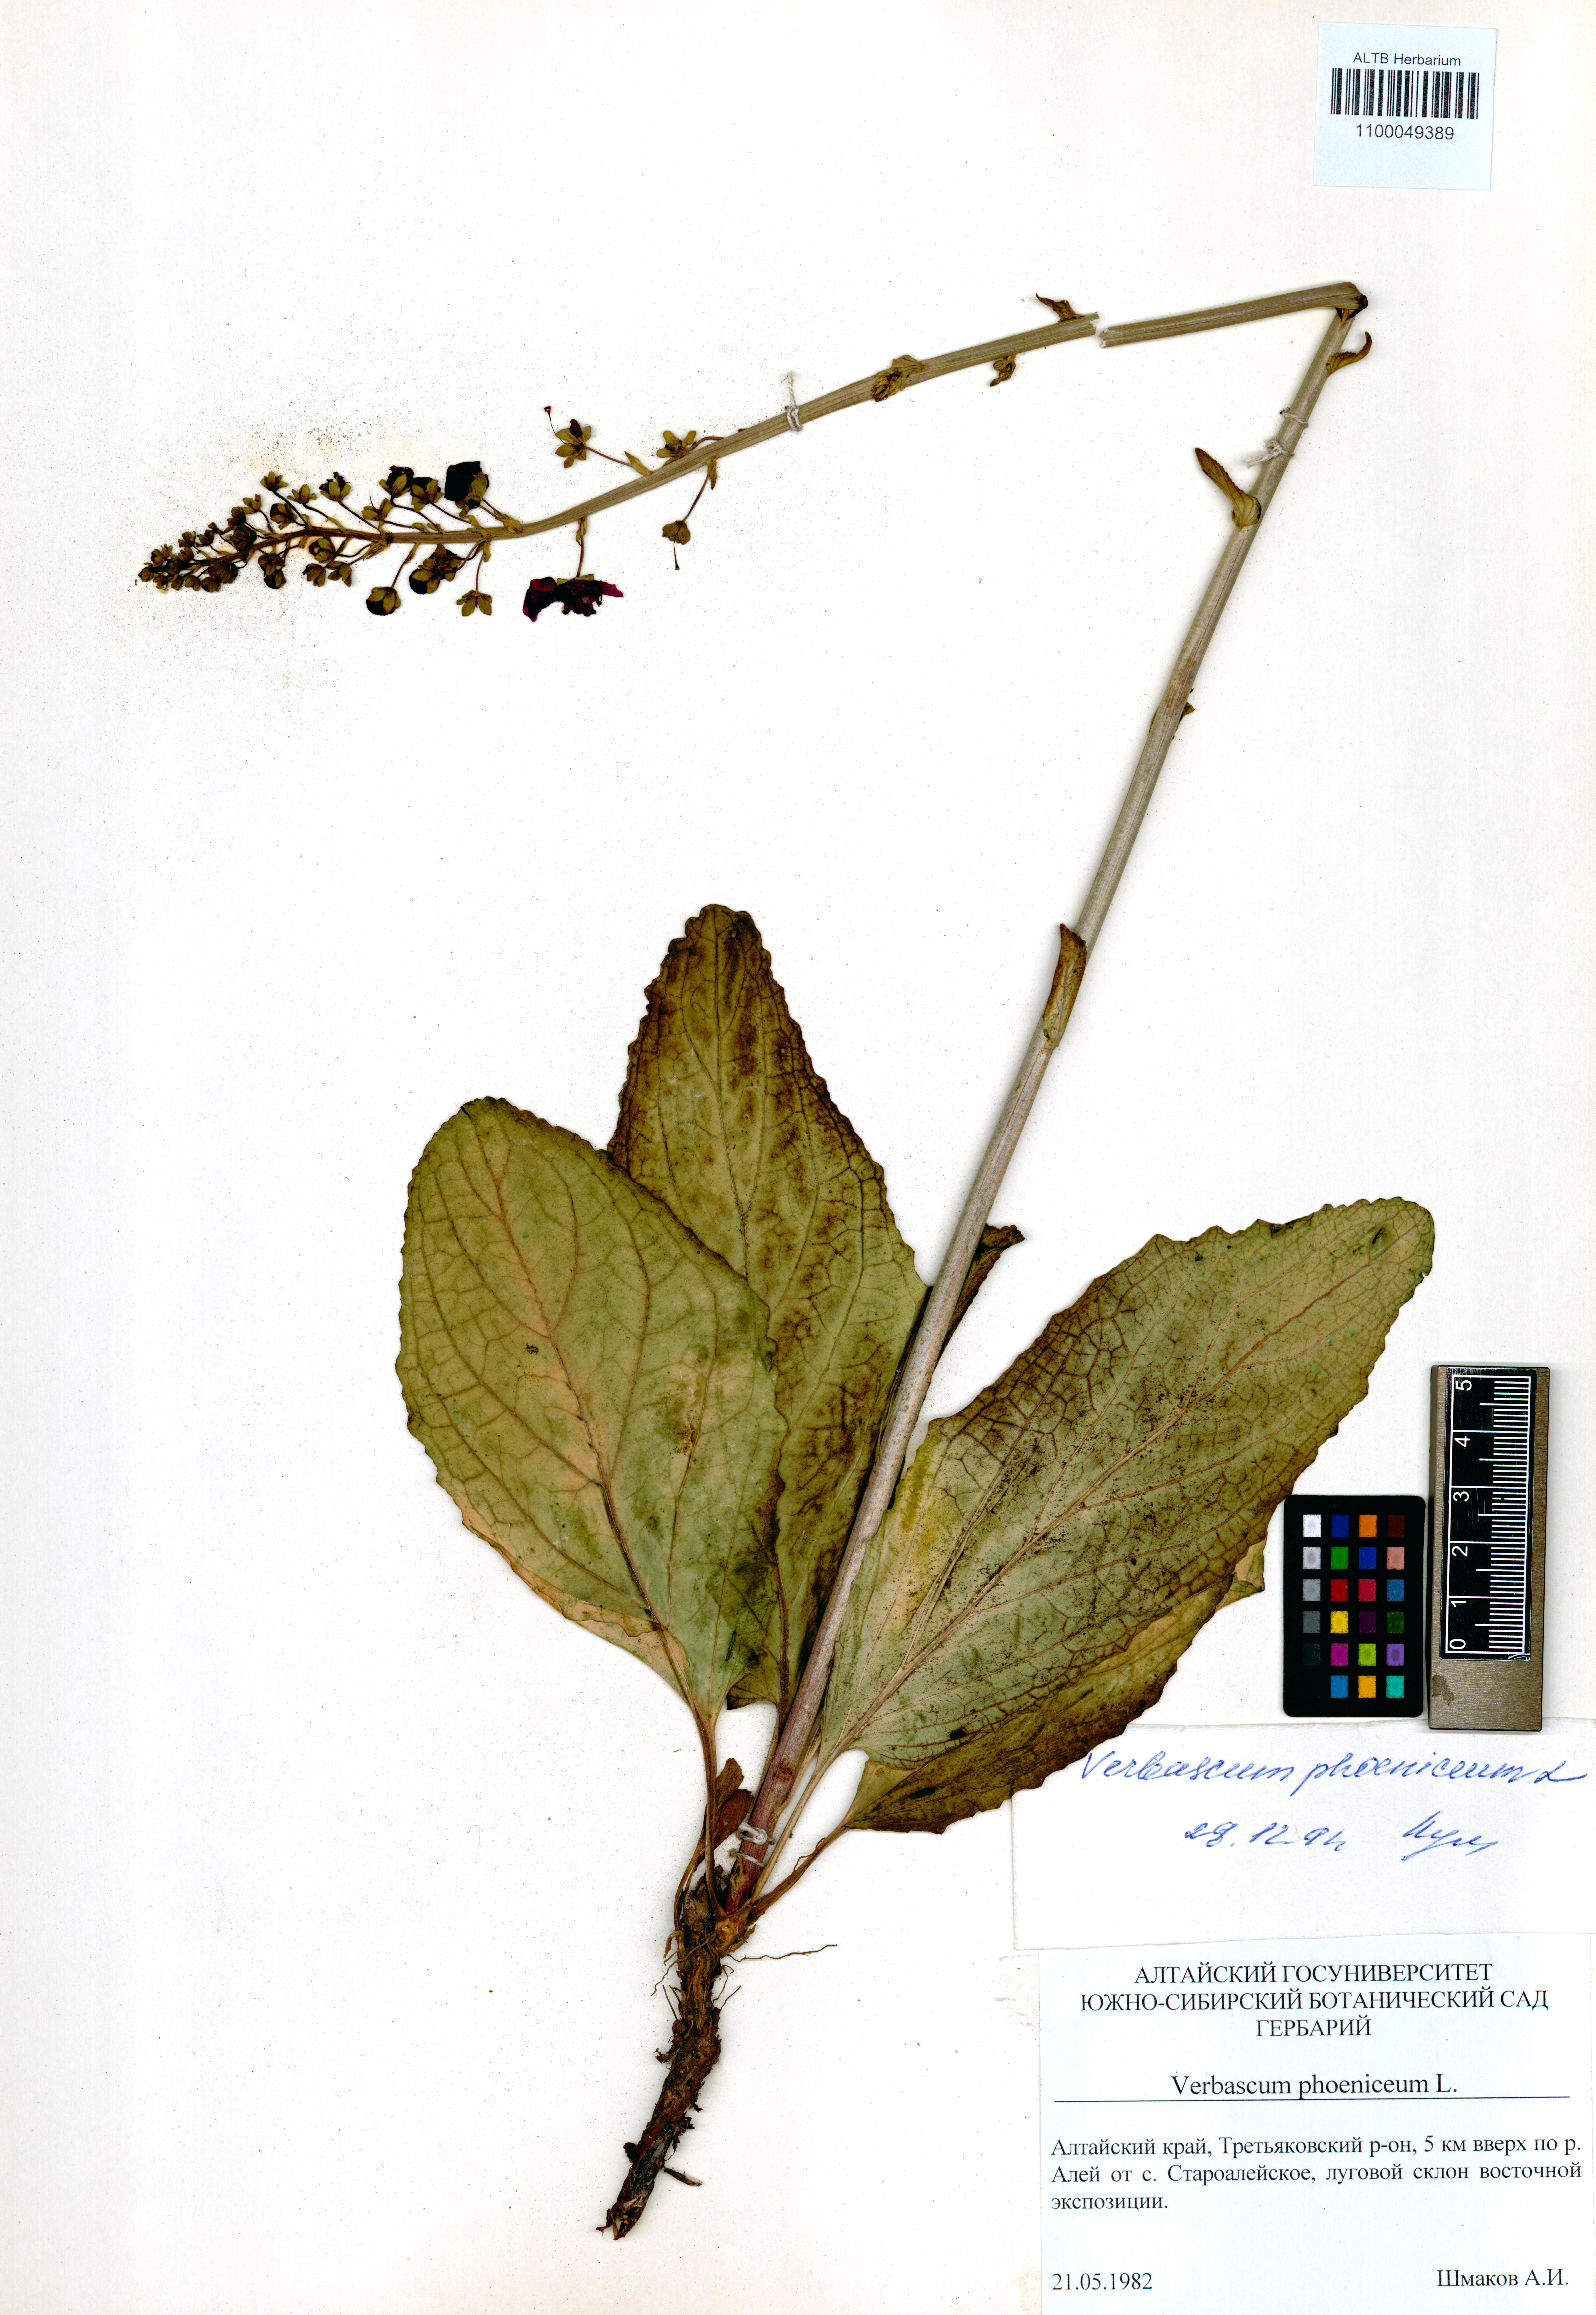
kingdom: Plantae
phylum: Tracheophyta
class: Magnoliopsida
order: Lamiales
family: Scrophulariaceae
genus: Verbascum
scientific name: Verbascum phoeniceum
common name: Purple mullein
